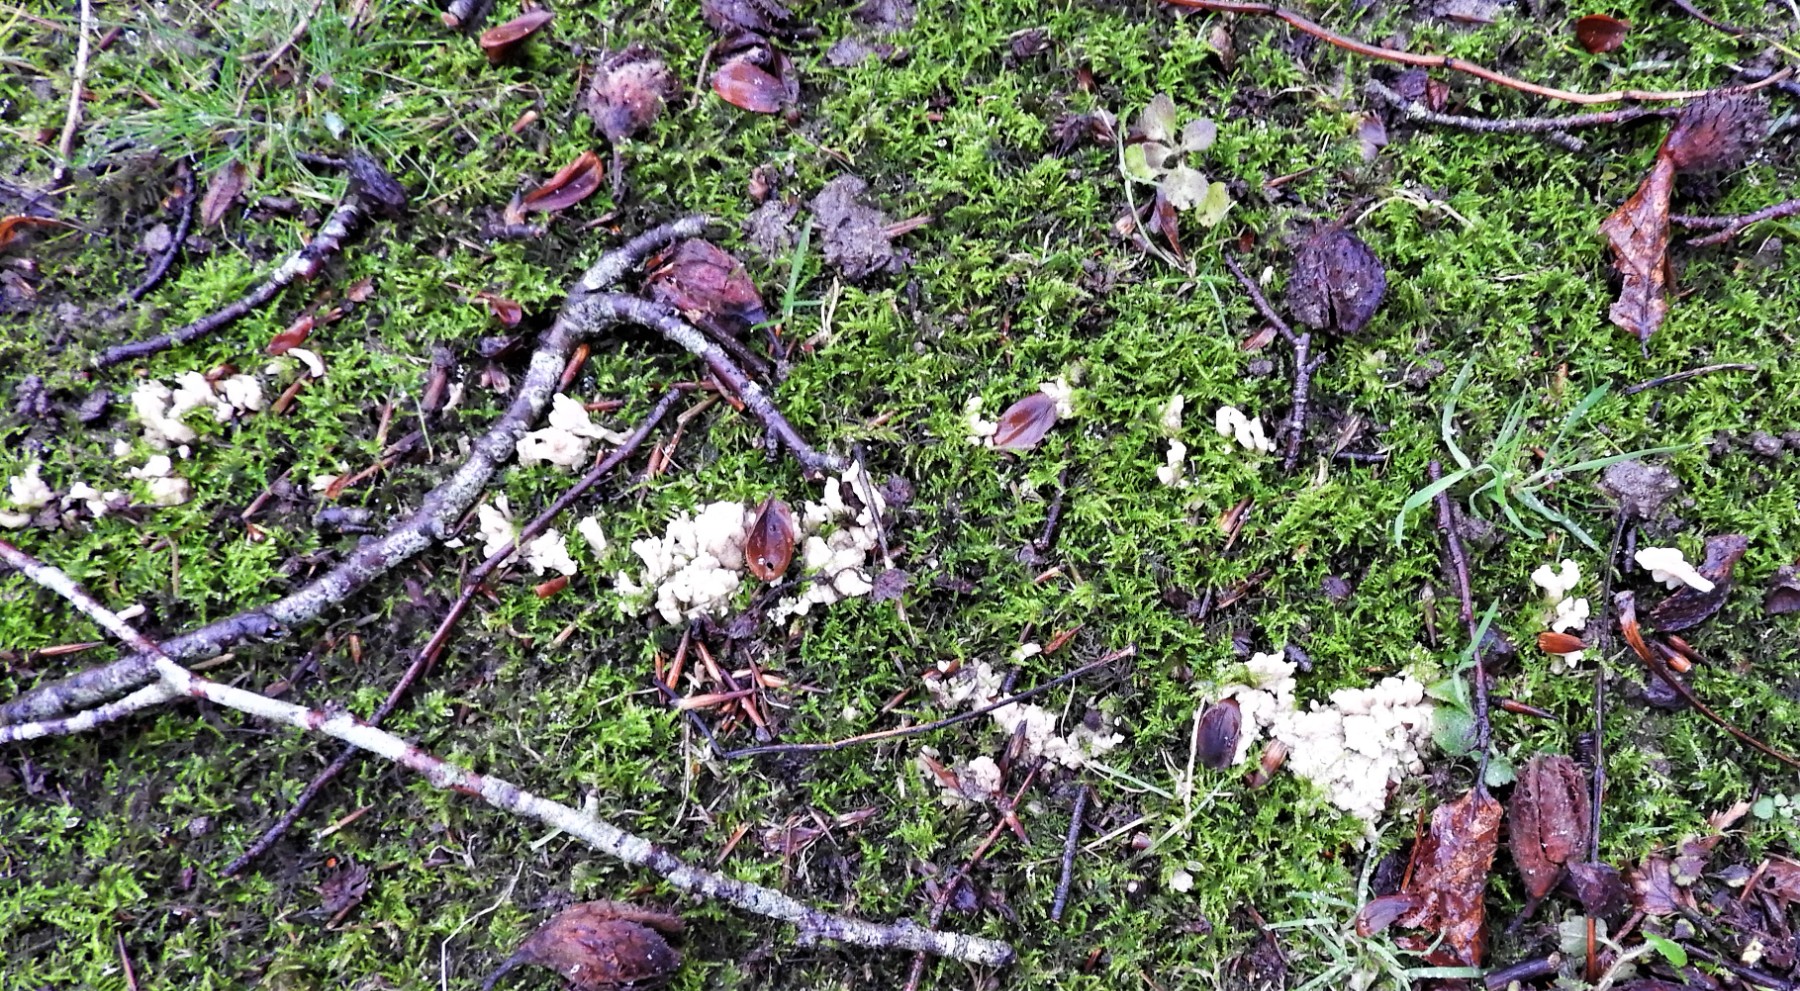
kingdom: Fungi
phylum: Basidiomycota
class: Agaricomycetes
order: Cantharellales
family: Hydnaceae
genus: Clavulina
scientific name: Clavulina
